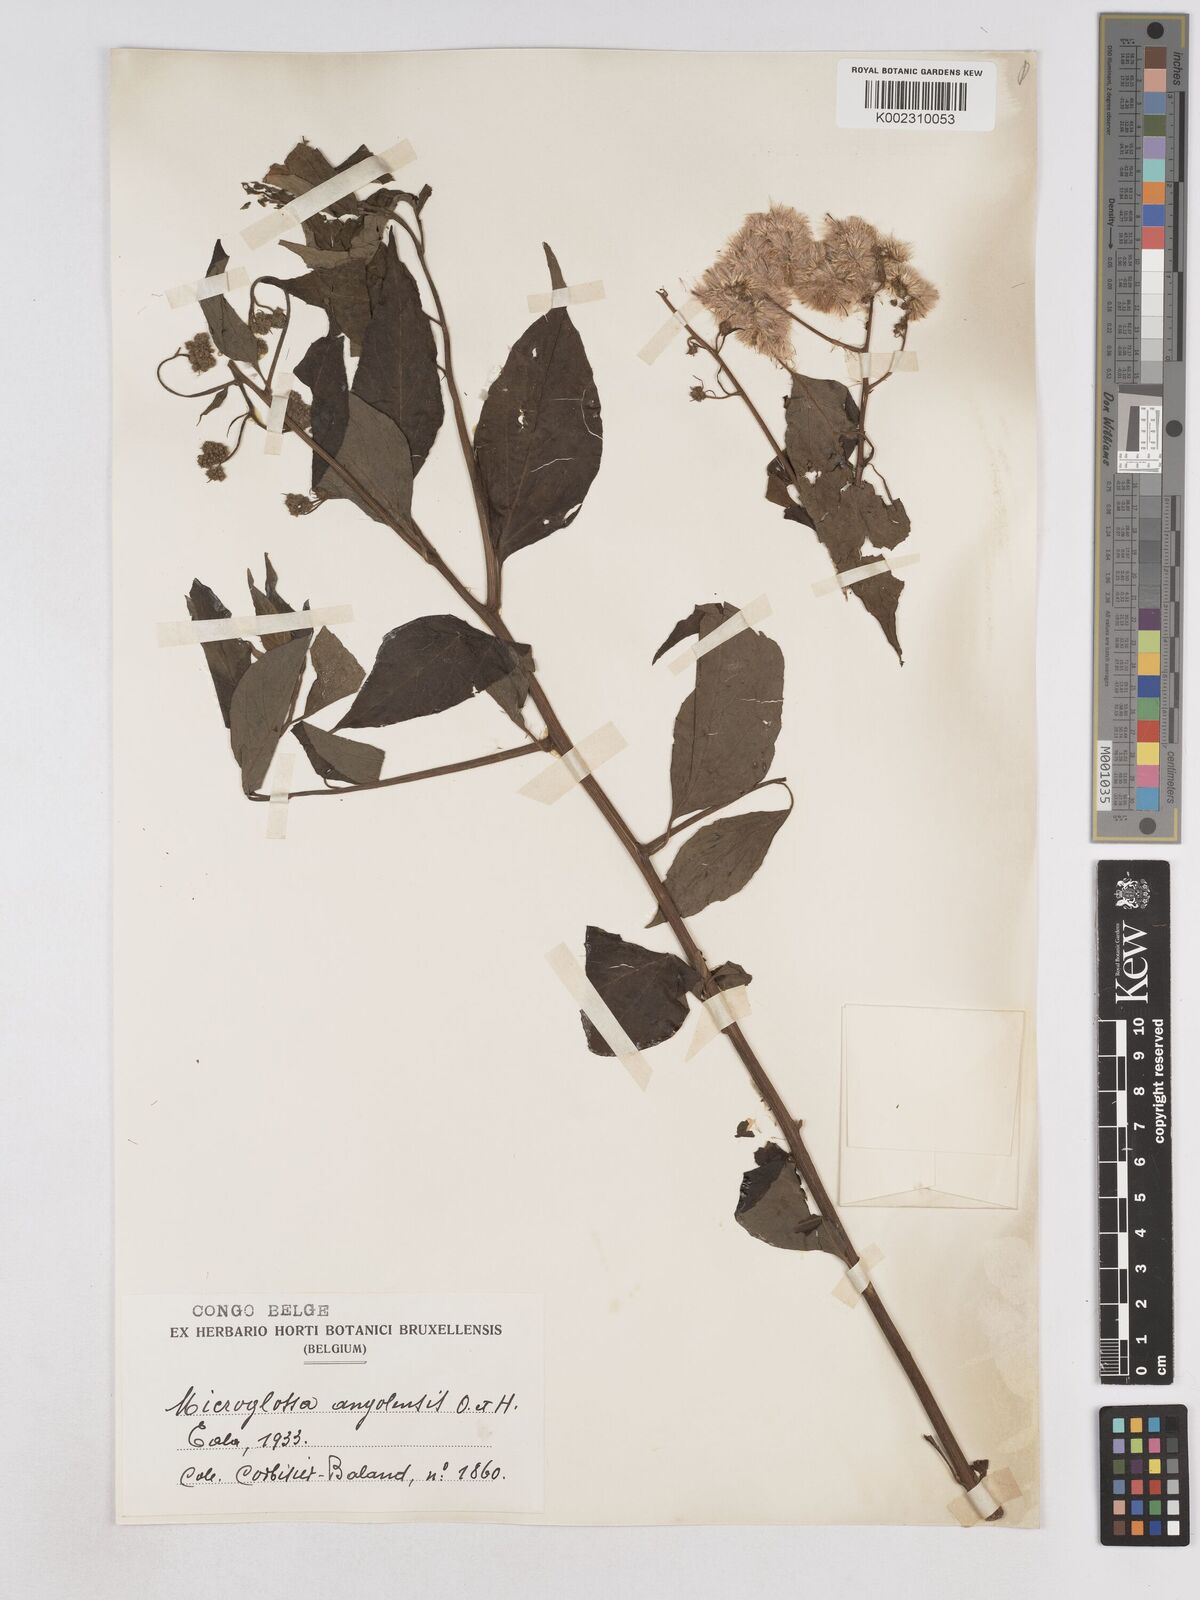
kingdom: Plantae
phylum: Tracheophyta
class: Magnoliopsida
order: Asterales
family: Asteraceae
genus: Microglossa
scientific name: Microglossa pyrifolia
